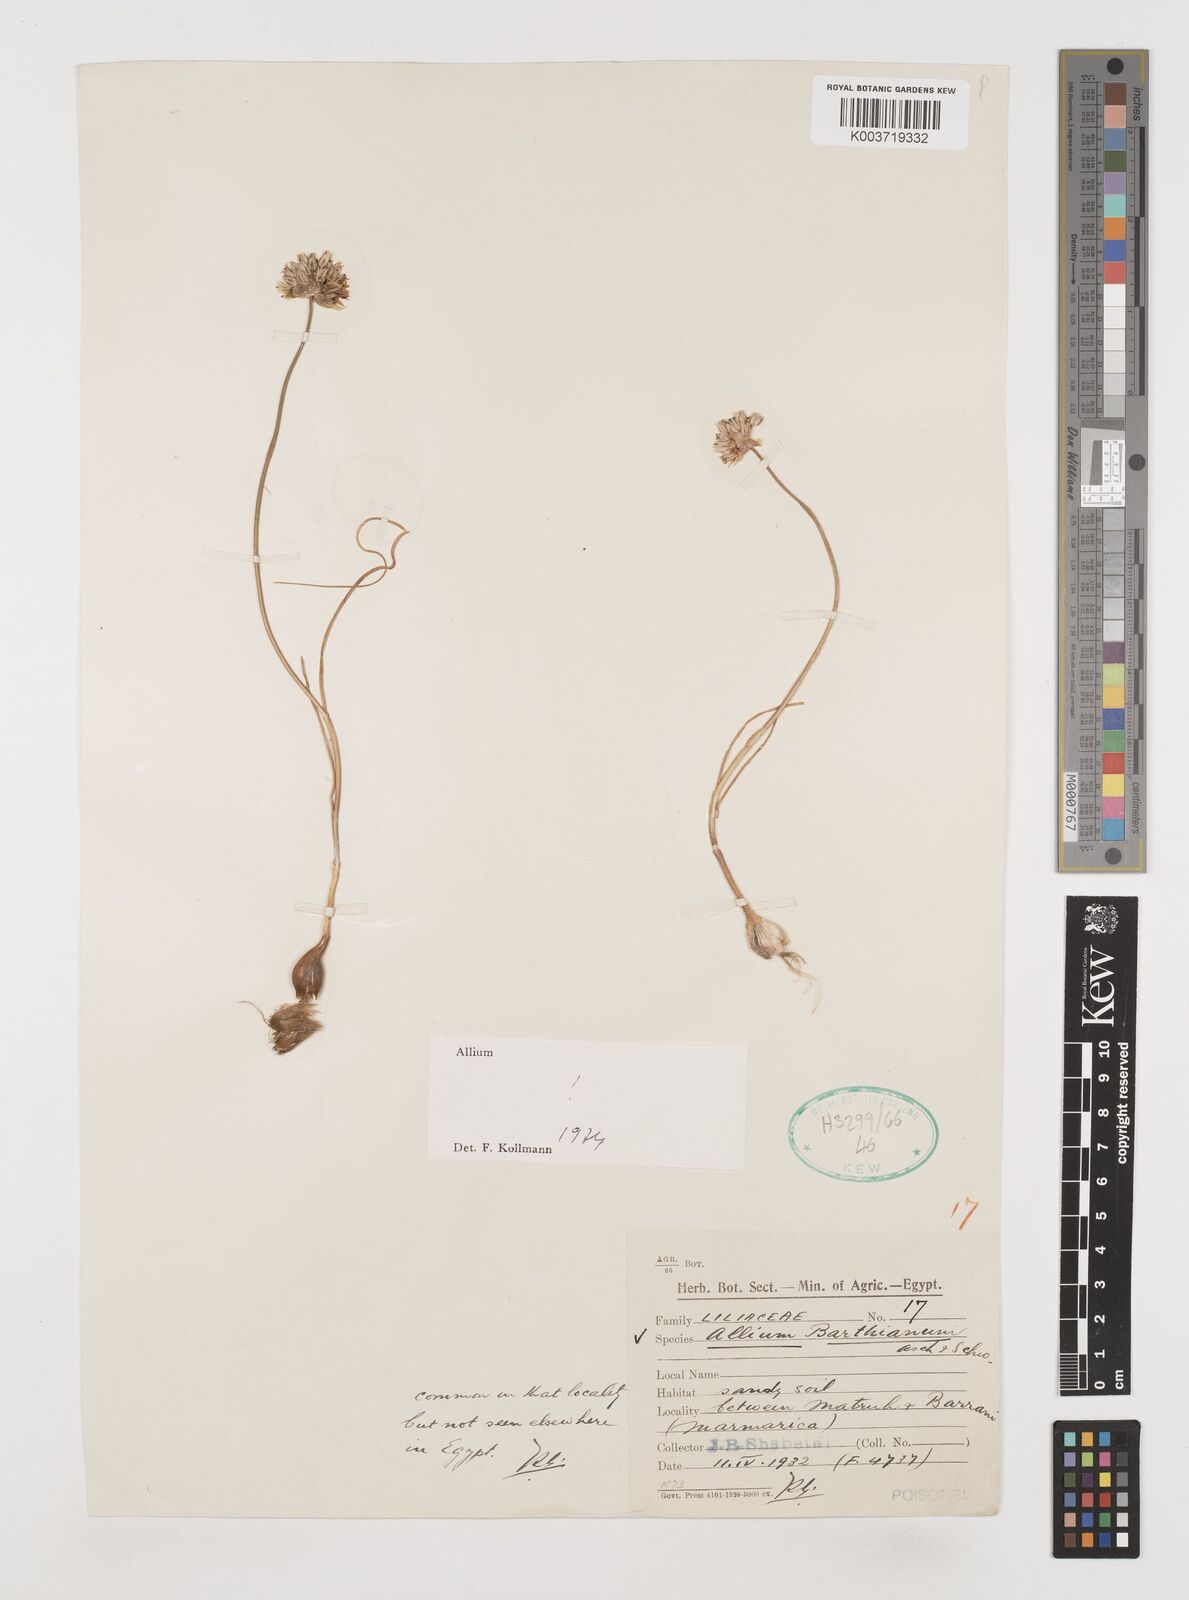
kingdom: Plantae
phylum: Tracheophyta
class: Liliopsida
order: Asparagales
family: Amaryllidaceae
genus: Allium
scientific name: Allium barthianum
